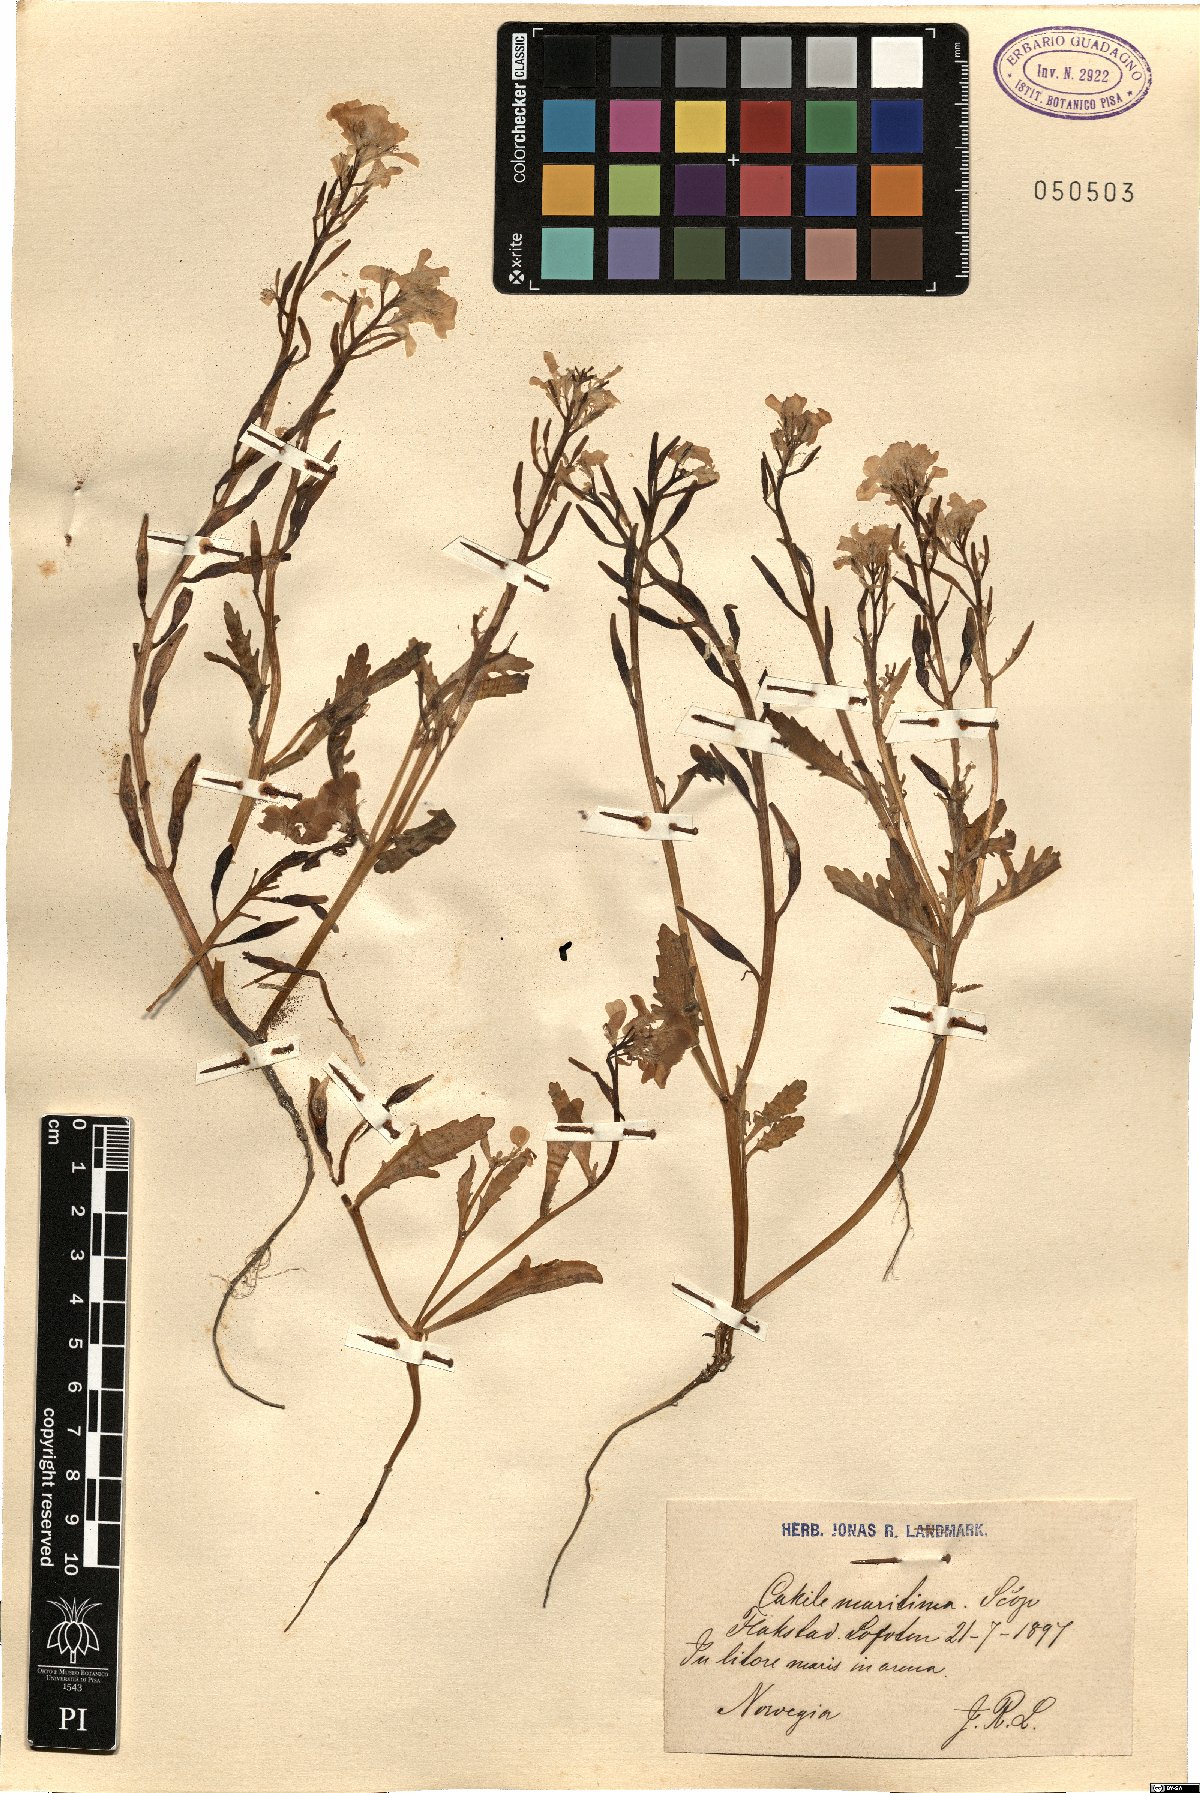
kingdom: Plantae
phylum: Tracheophyta
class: Magnoliopsida
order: Brassicales
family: Brassicaceae
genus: Cakile
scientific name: Cakile maritima
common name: Sea rocket
